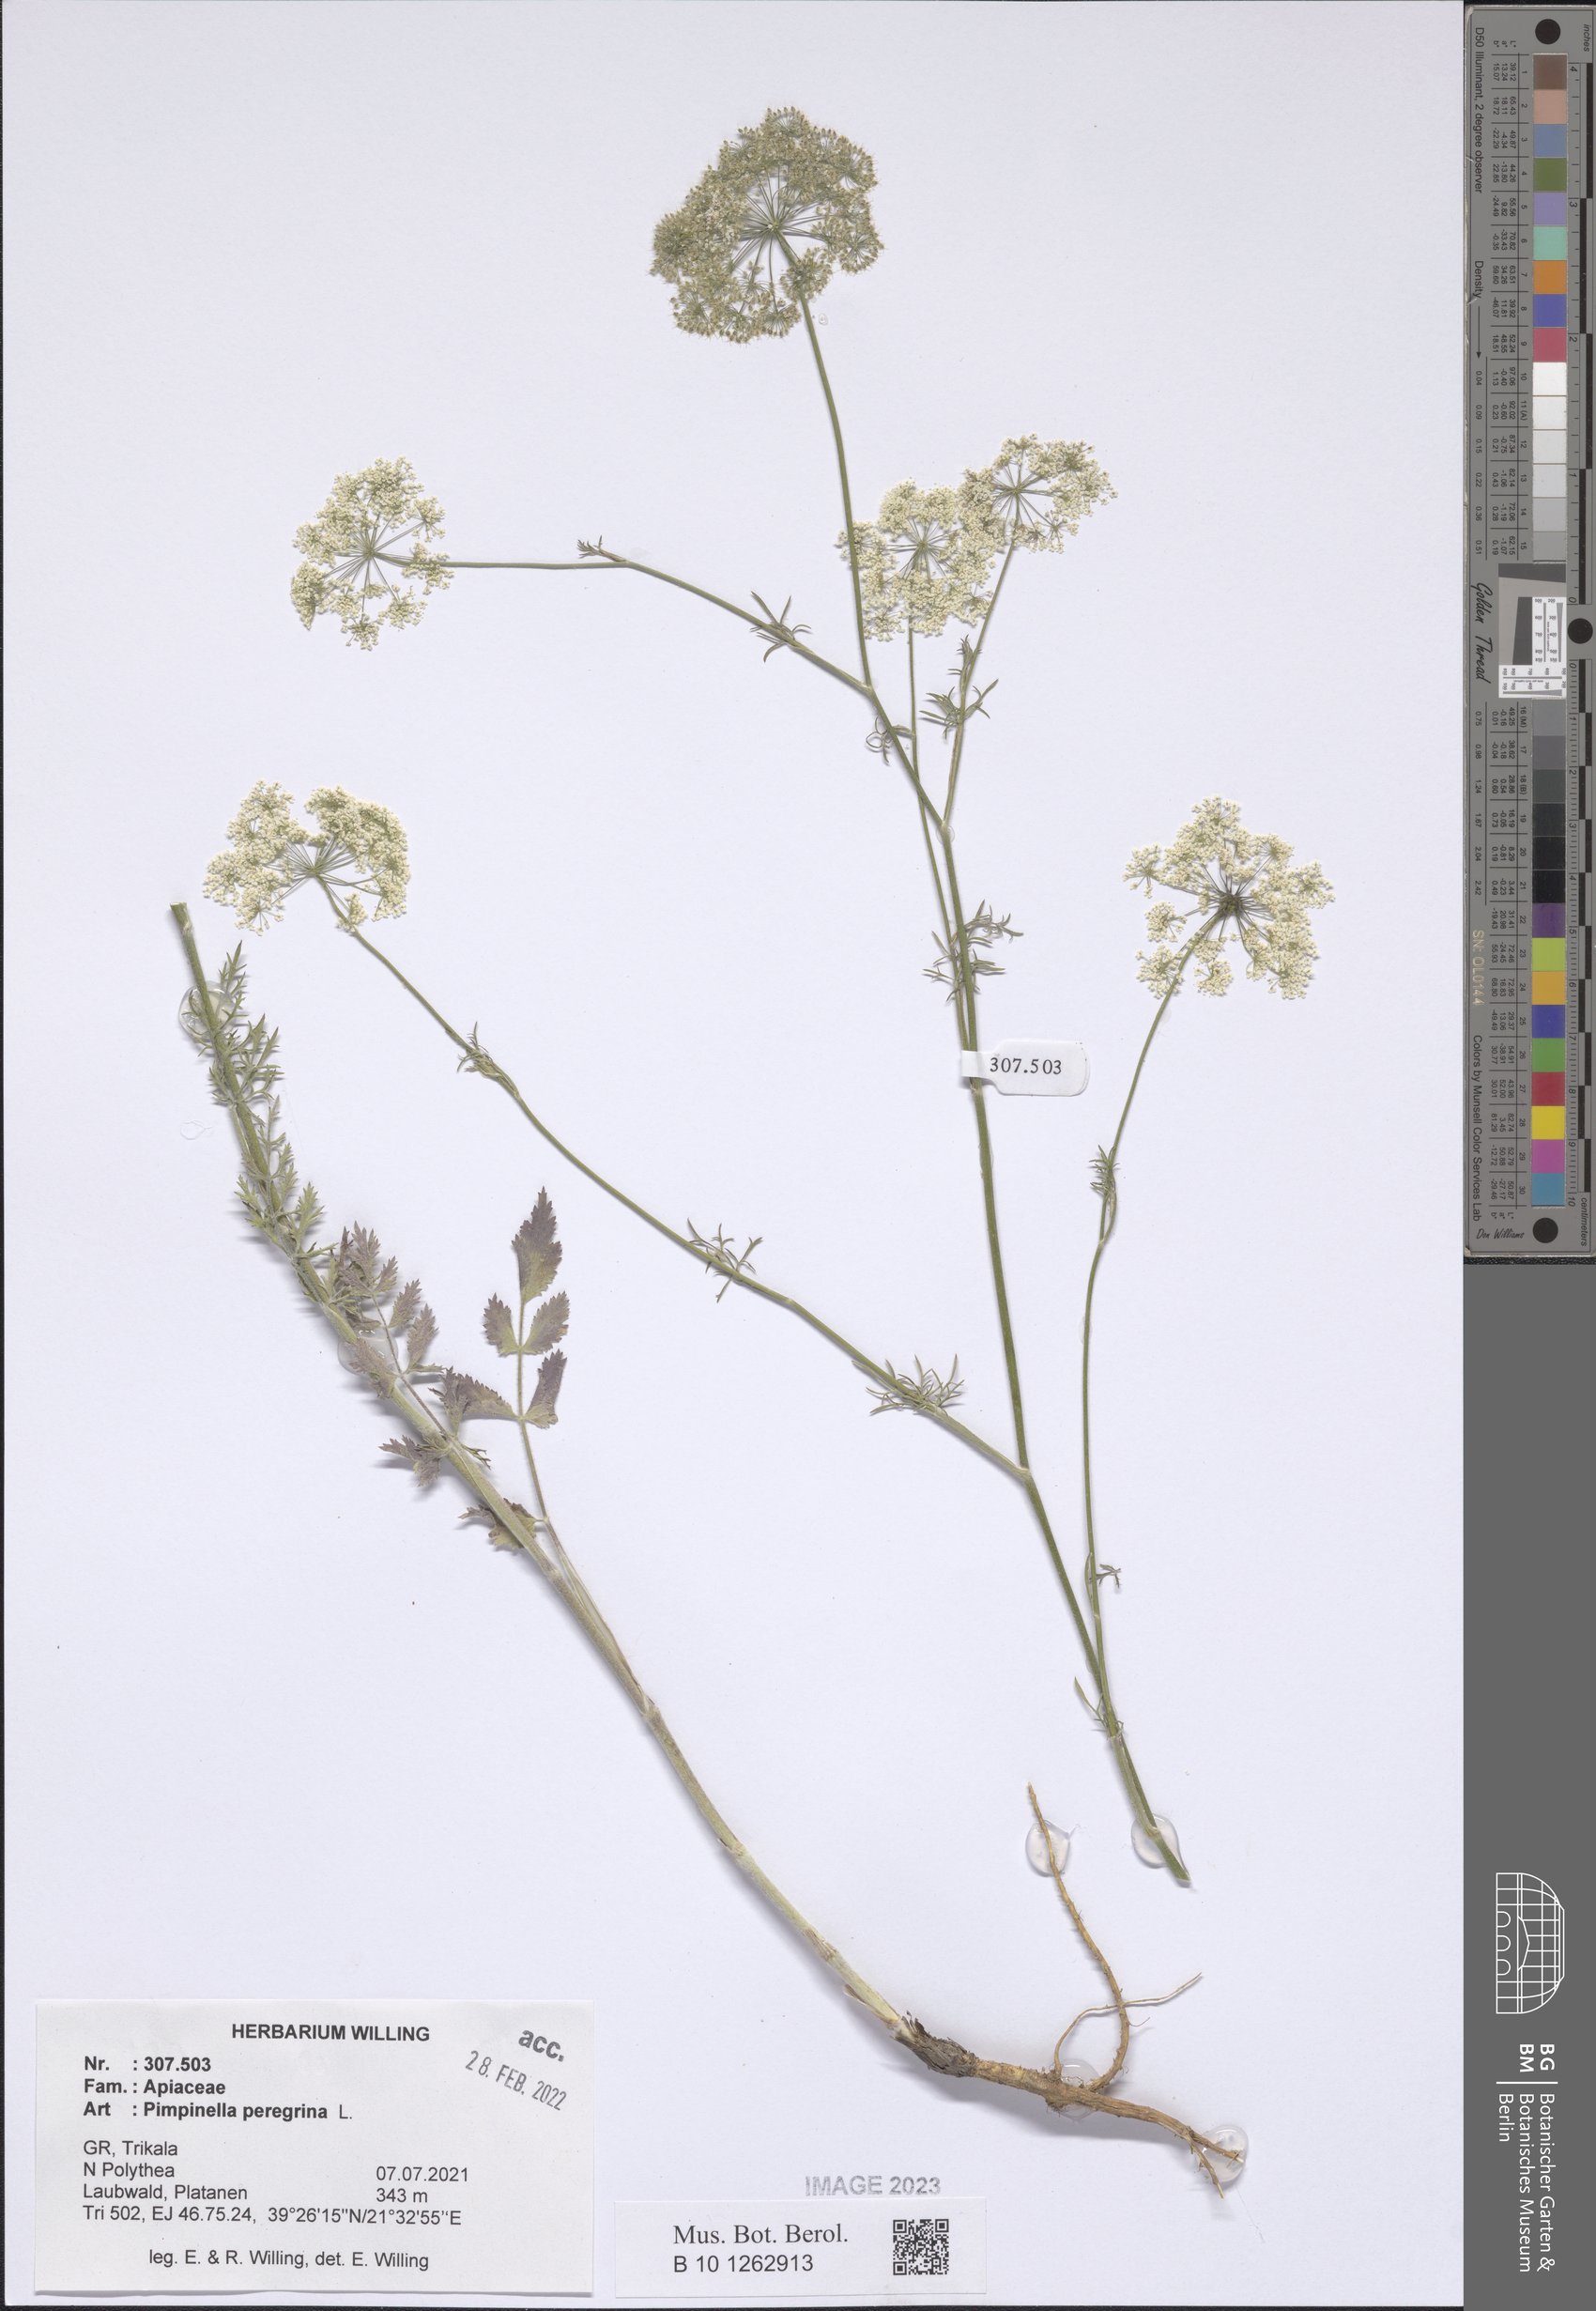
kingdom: Plantae
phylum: Tracheophyta
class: Magnoliopsida
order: Apiales
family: Apiaceae
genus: Pimpinella
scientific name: Pimpinella peregrina
